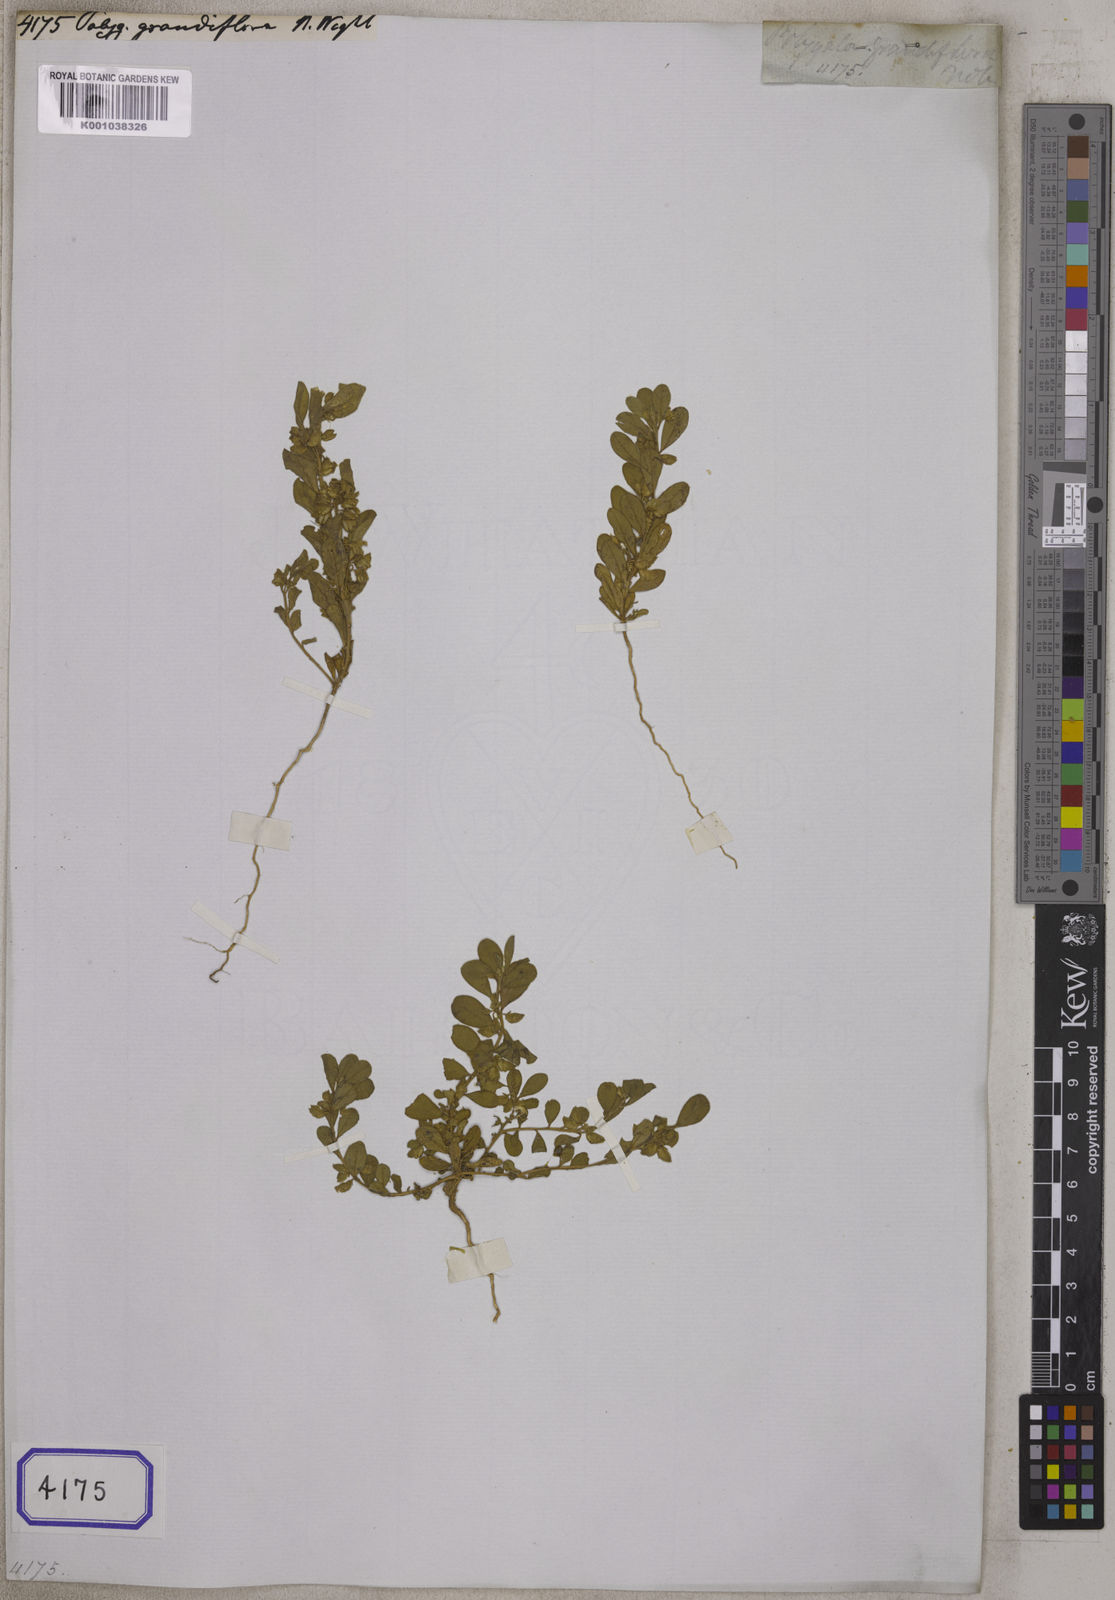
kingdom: Plantae
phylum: Tracheophyta
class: Magnoliopsida
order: Fabales
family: Polygalaceae
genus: Polygala
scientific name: Polygala glomerata
